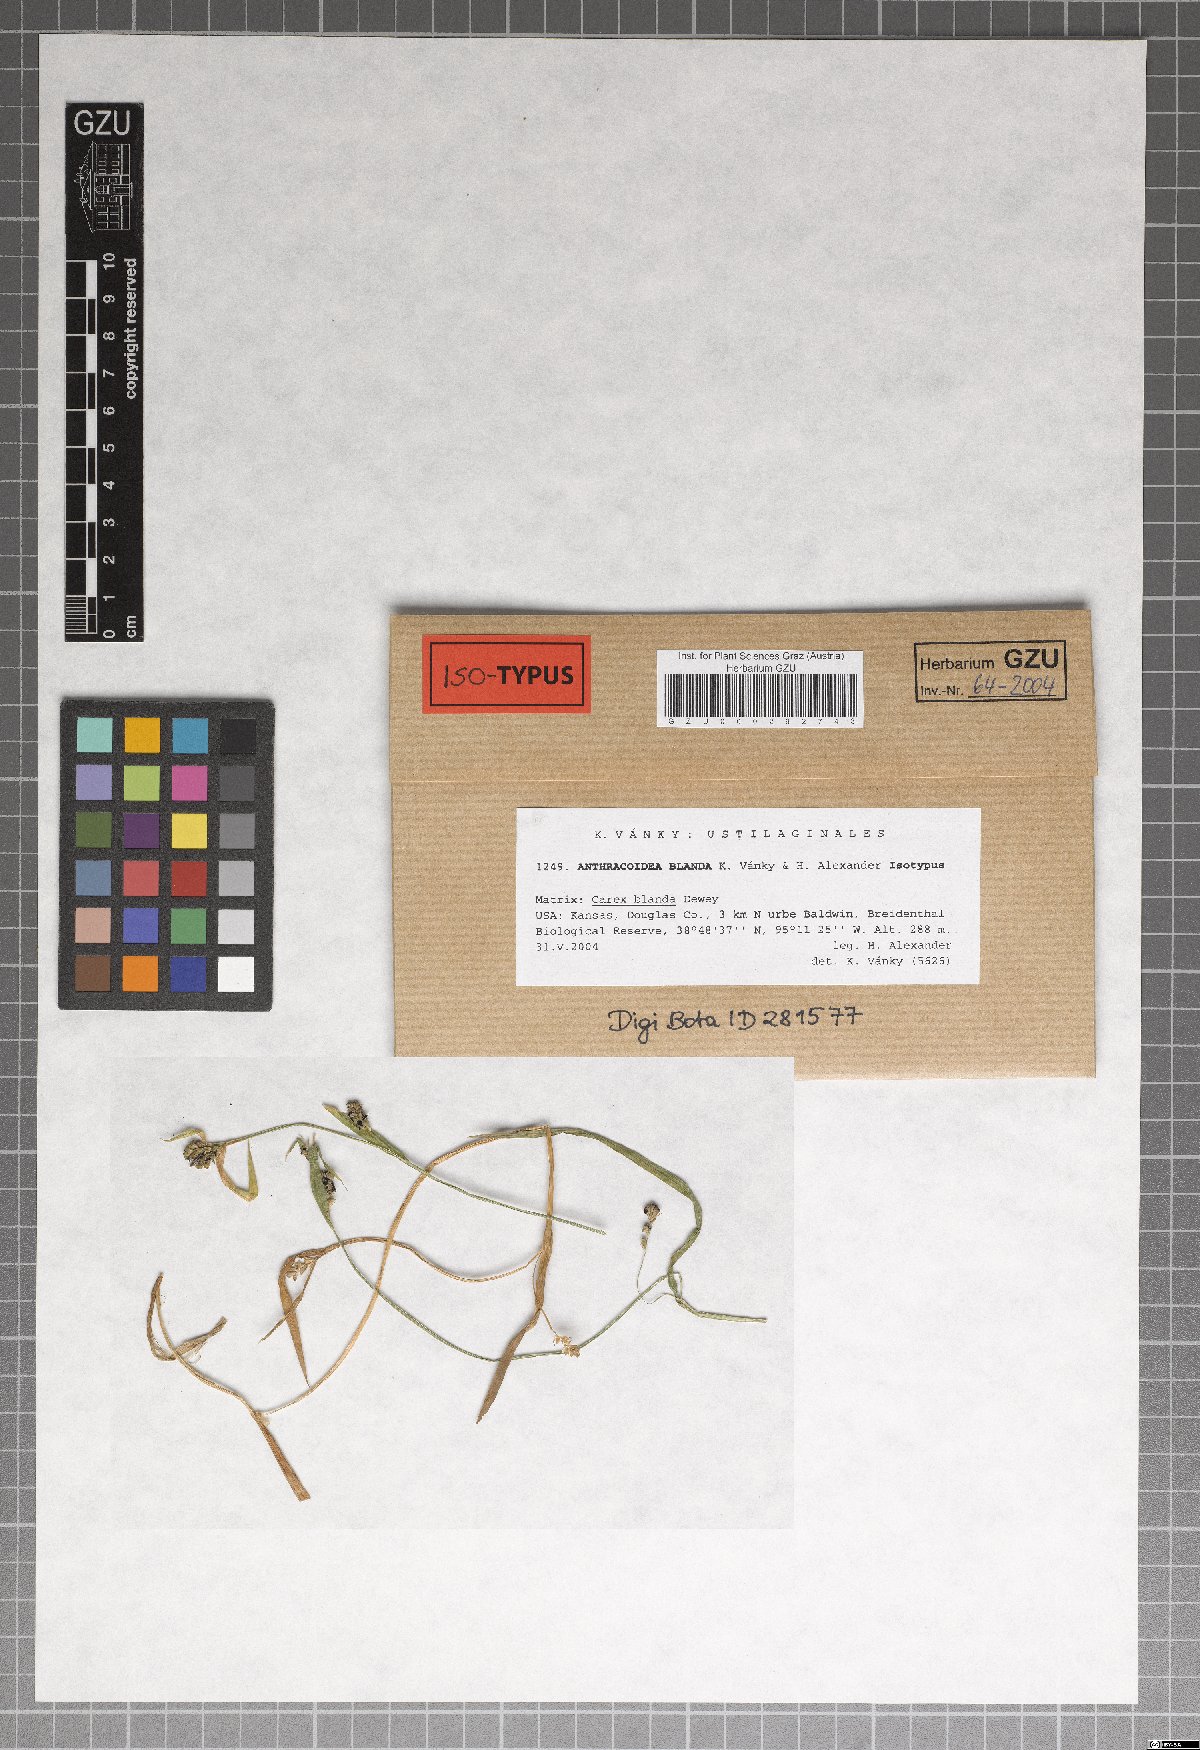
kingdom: Fungi
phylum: Basidiomycota
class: Ustilaginomycetes
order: Ustilaginales
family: Anthracoideaceae
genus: Anthracoidea
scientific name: Anthracoidea blanda
